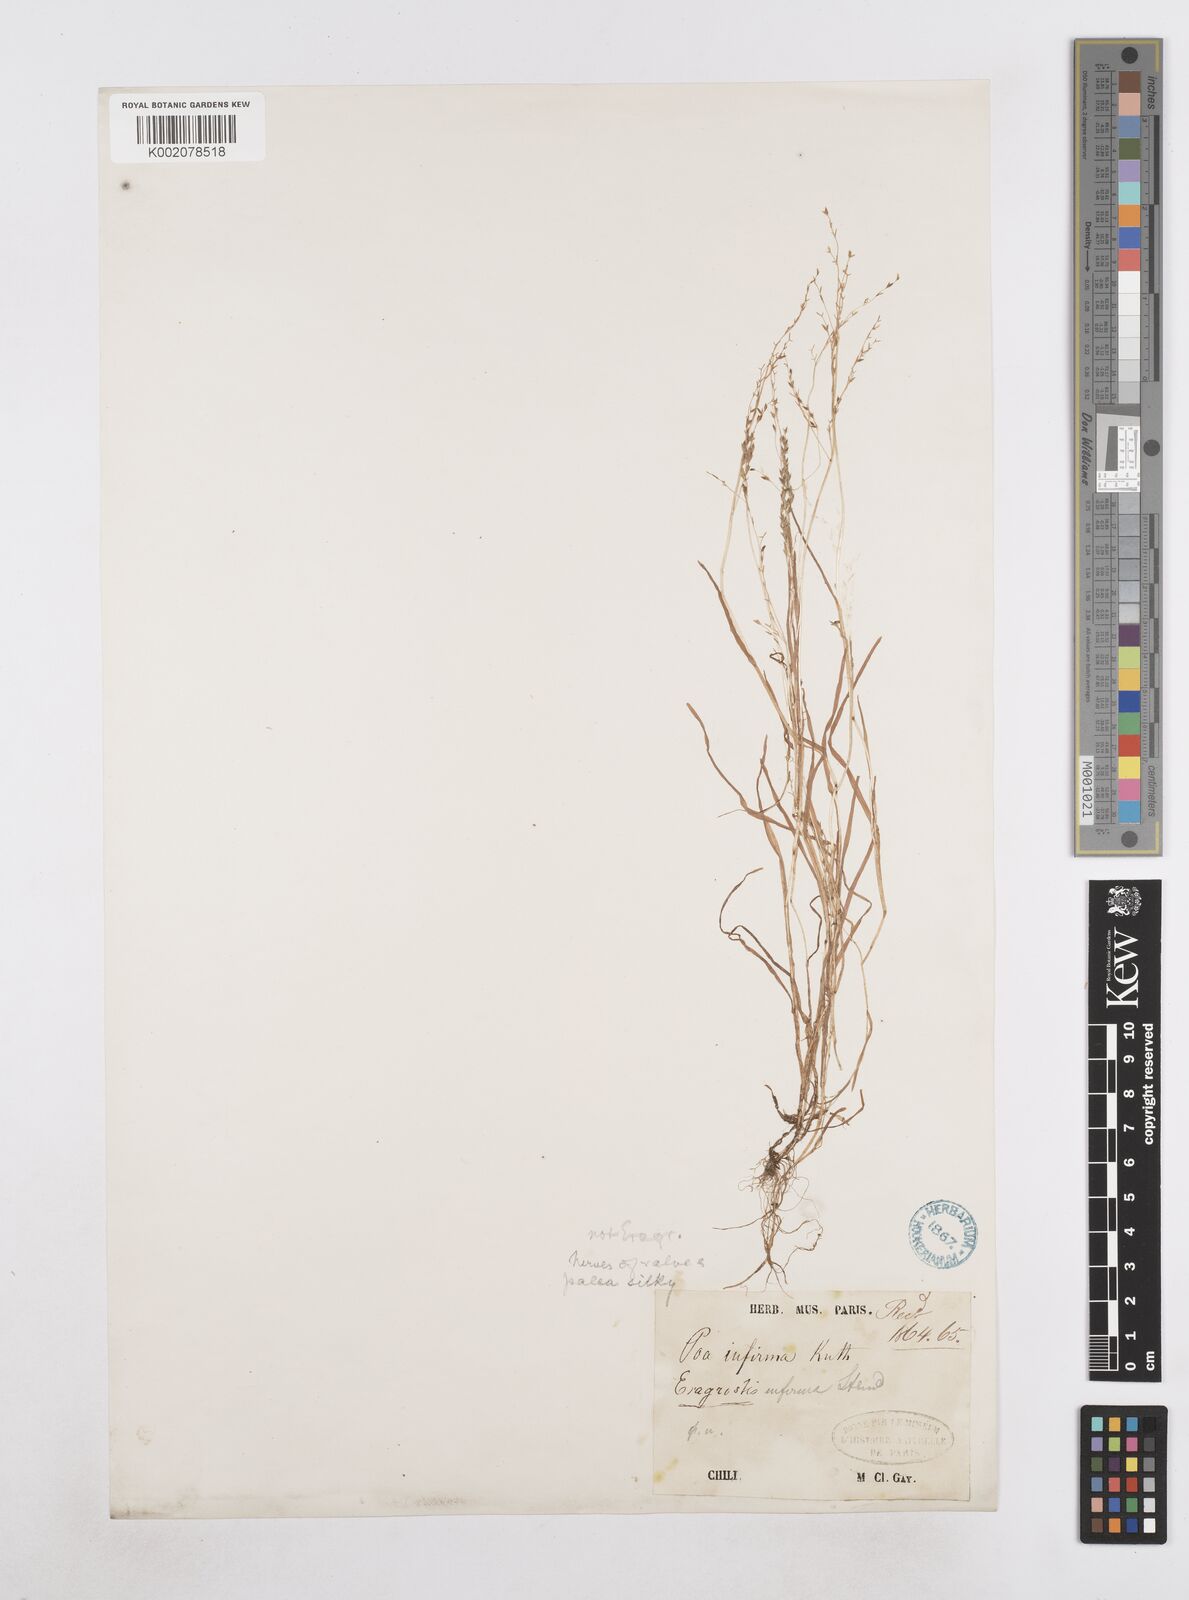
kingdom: Plantae
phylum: Tracheophyta
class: Liliopsida
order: Poales
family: Poaceae
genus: Poa
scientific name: Poa infirma
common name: Weak bluegrass
